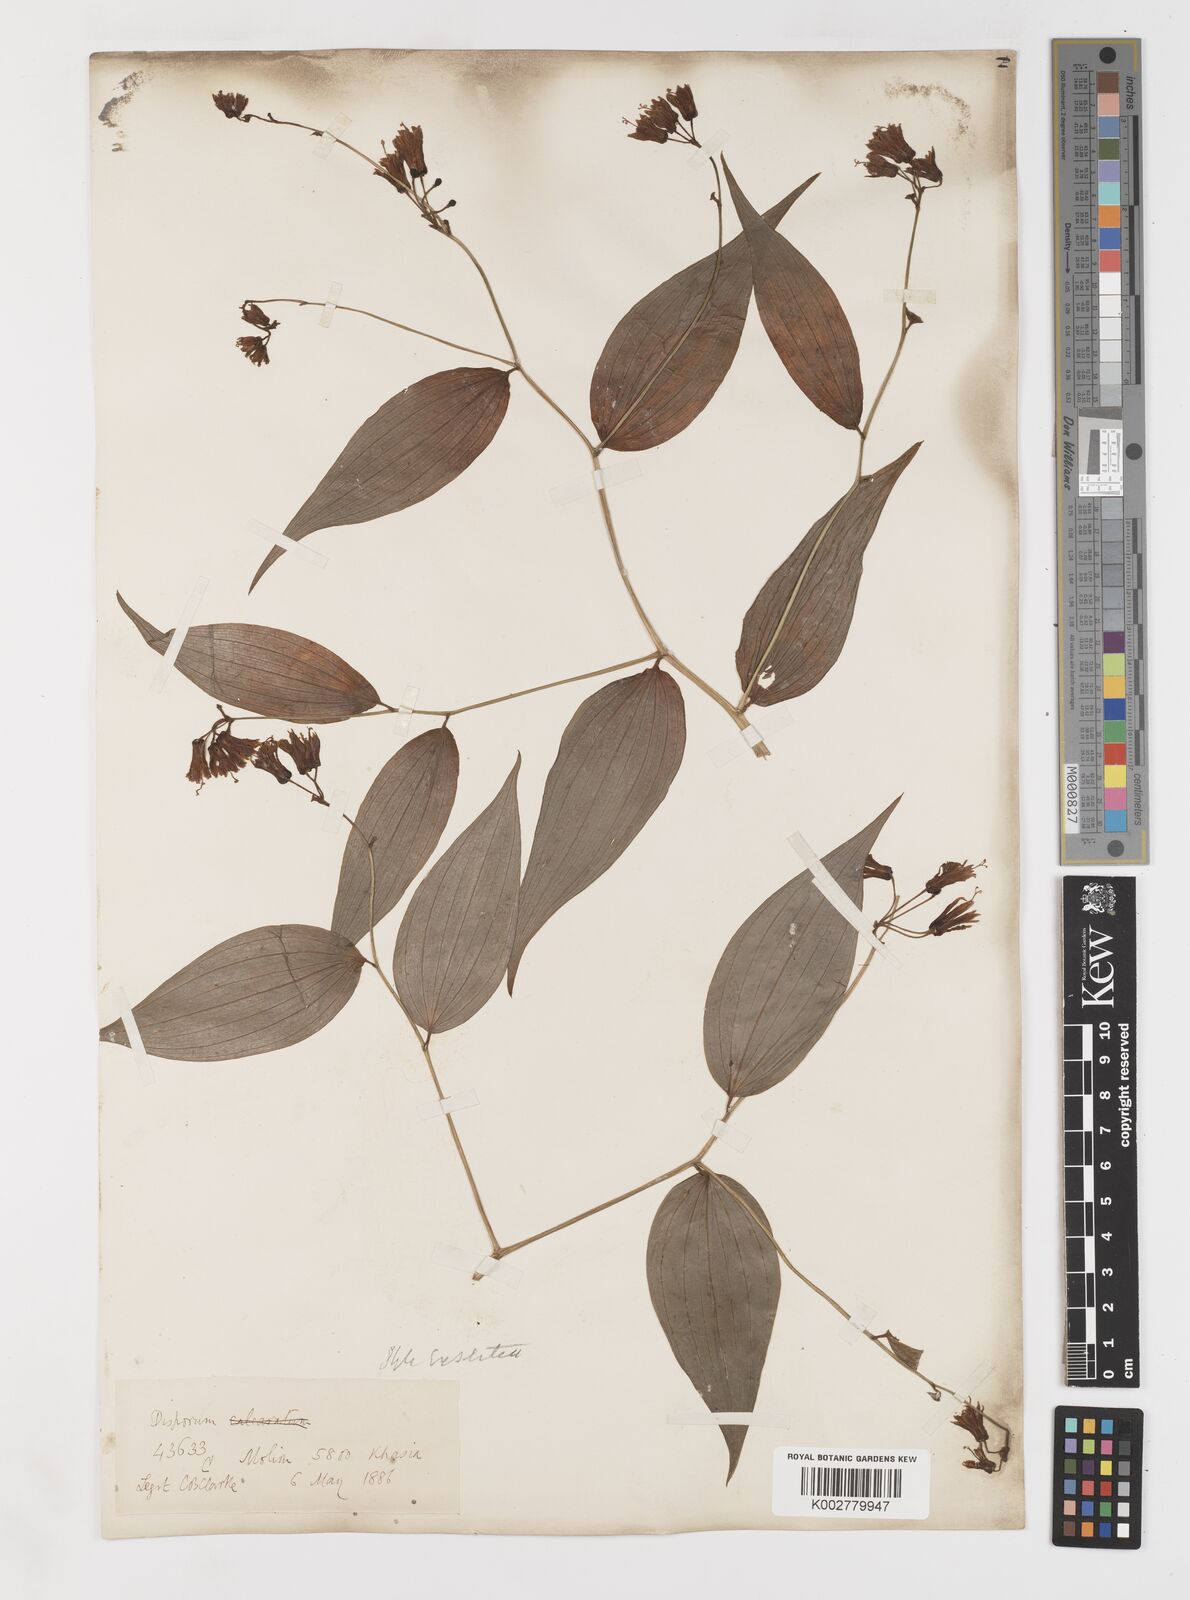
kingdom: Plantae
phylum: Tracheophyta
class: Liliopsida
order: Liliales
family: Colchicaceae
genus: Disporum
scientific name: Disporum cantoniense
